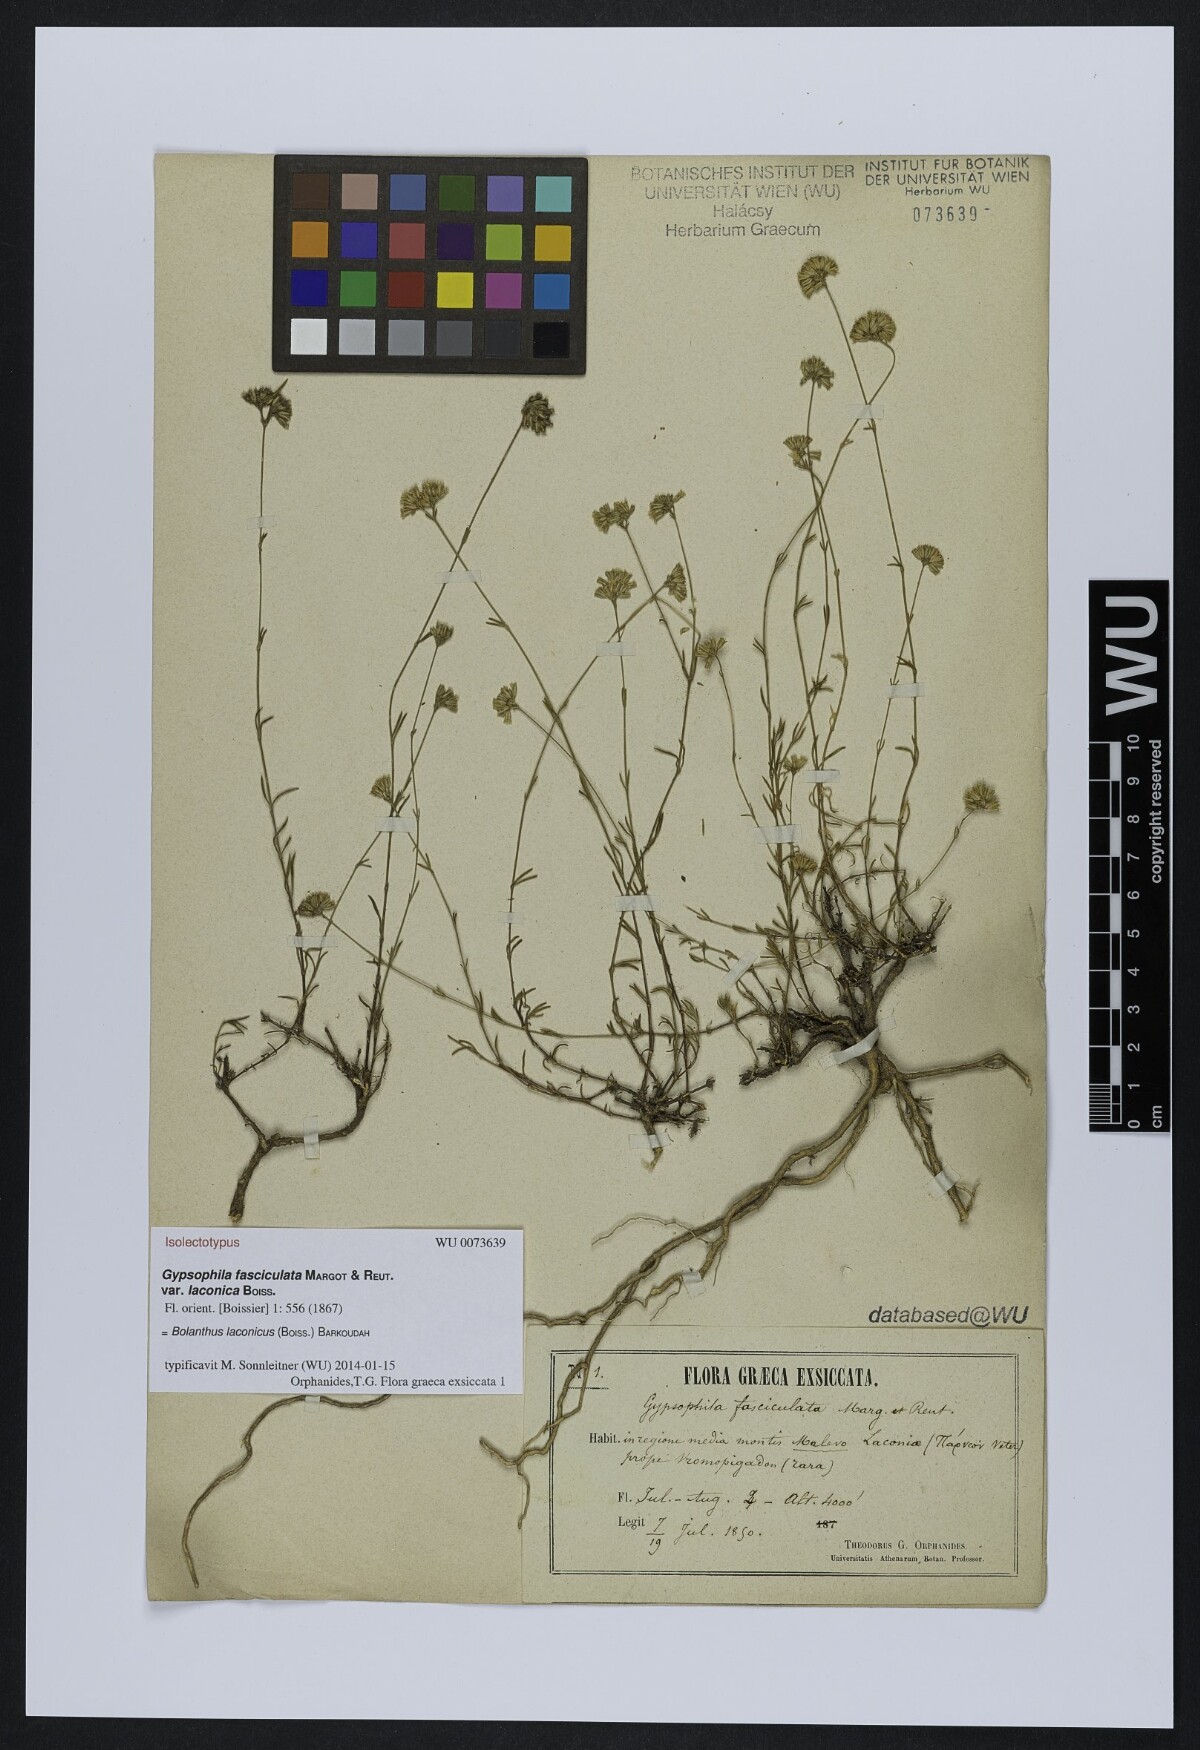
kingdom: Plantae
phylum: Tracheophyta
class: Magnoliopsida
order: Caryophyllales
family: Caryophyllaceae
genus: Graecobolanthus
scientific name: Graecobolanthus laconicus
